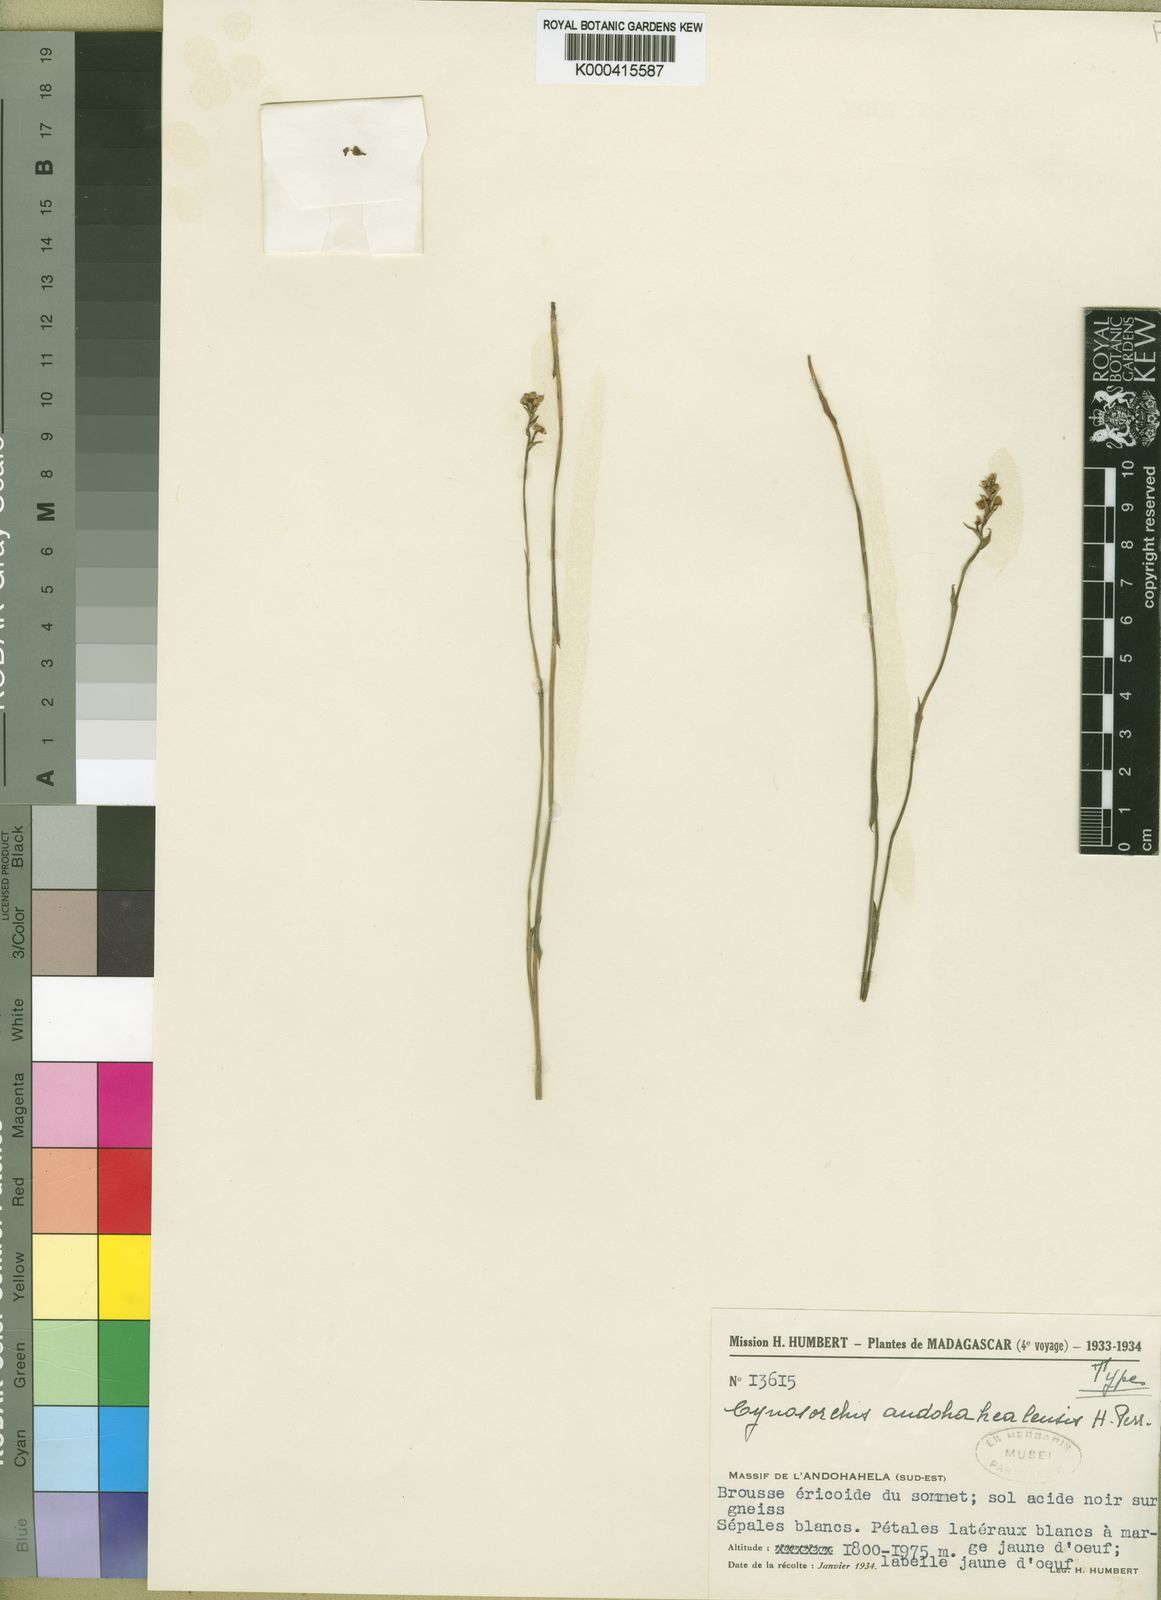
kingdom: Plantae
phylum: Tracheophyta
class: Liliopsida
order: Asparagales
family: Orchidaceae
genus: Cynorkis
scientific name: Cynorkis andohahelensis
